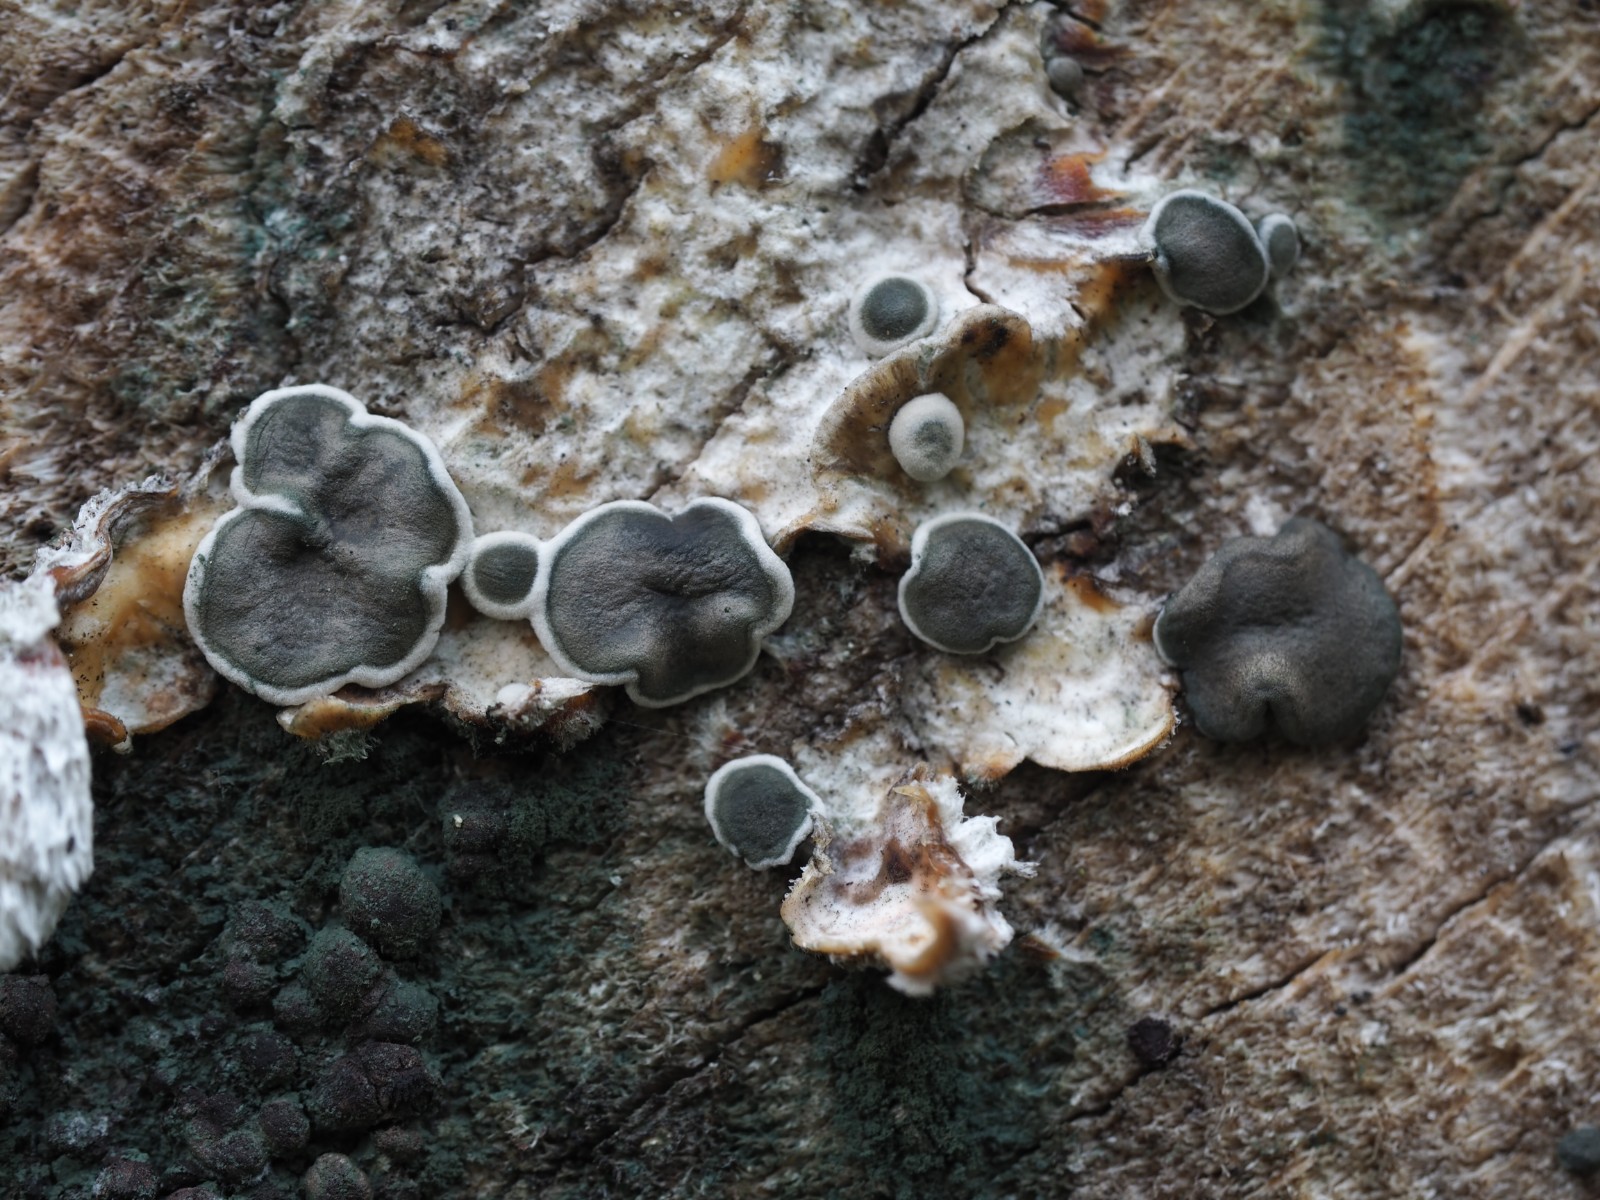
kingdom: Fungi
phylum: Ascomycota
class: Sordariomycetes
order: Hypocreales
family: Hypocreaceae
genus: Trichoderma
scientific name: Trichoderma citrinoviride
